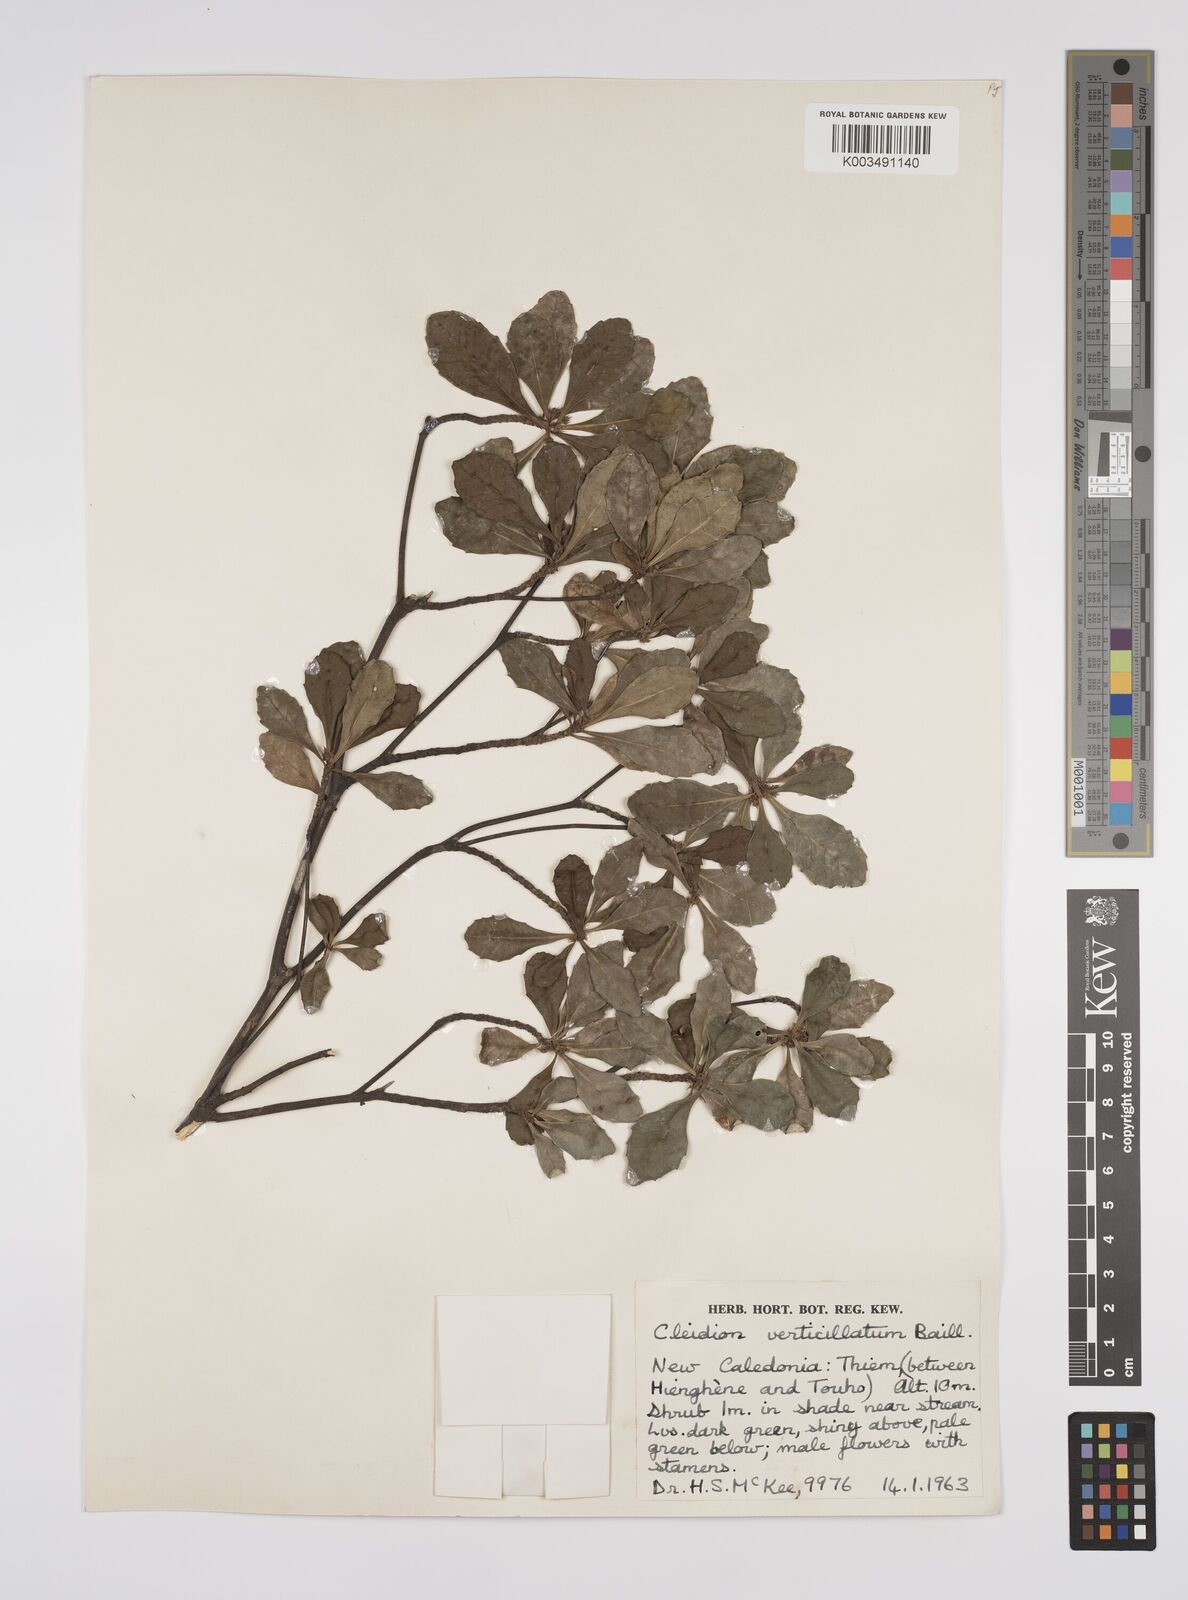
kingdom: Plantae
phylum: Tracheophyta
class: Magnoliopsida
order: Malpighiales
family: Euphorbiaceae
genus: Cleidion
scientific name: Cleidion verticillatum
